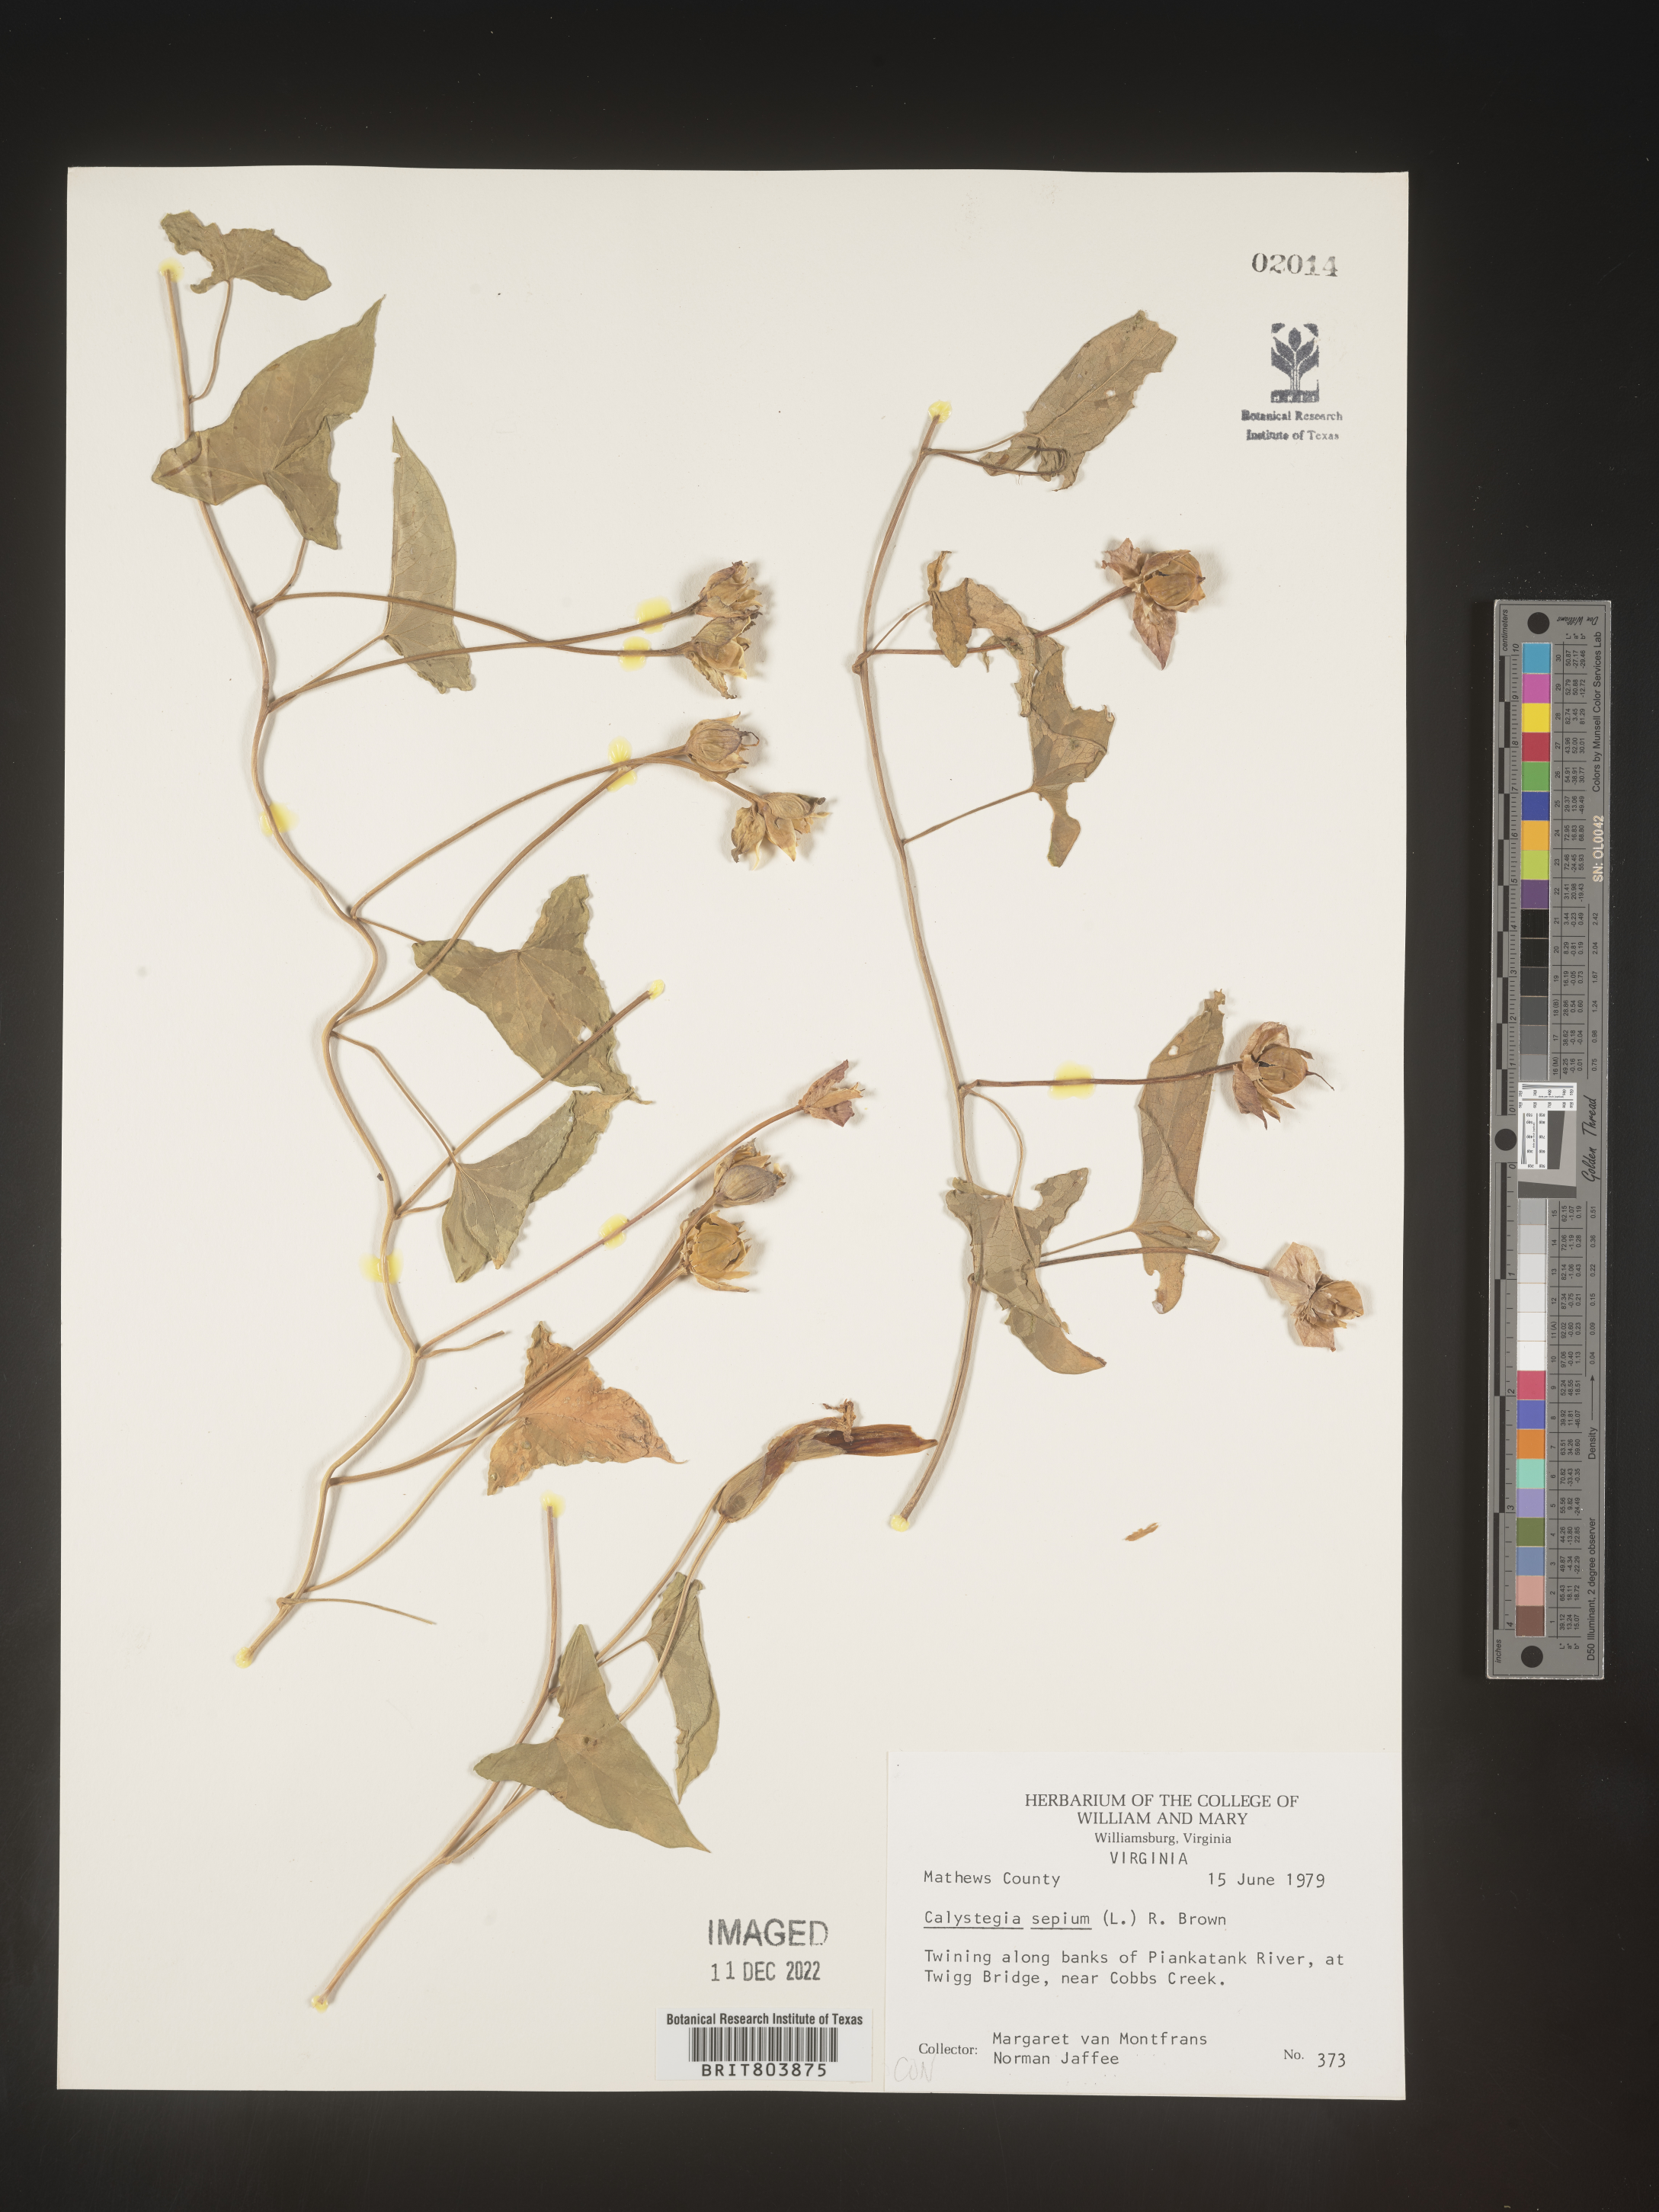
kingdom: Plantae
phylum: Tracheophyta
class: Magnoliopsida
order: Solanales
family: Convolvulaceae
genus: Calystegia
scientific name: Calystegia sepium
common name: Hedge bindweed
